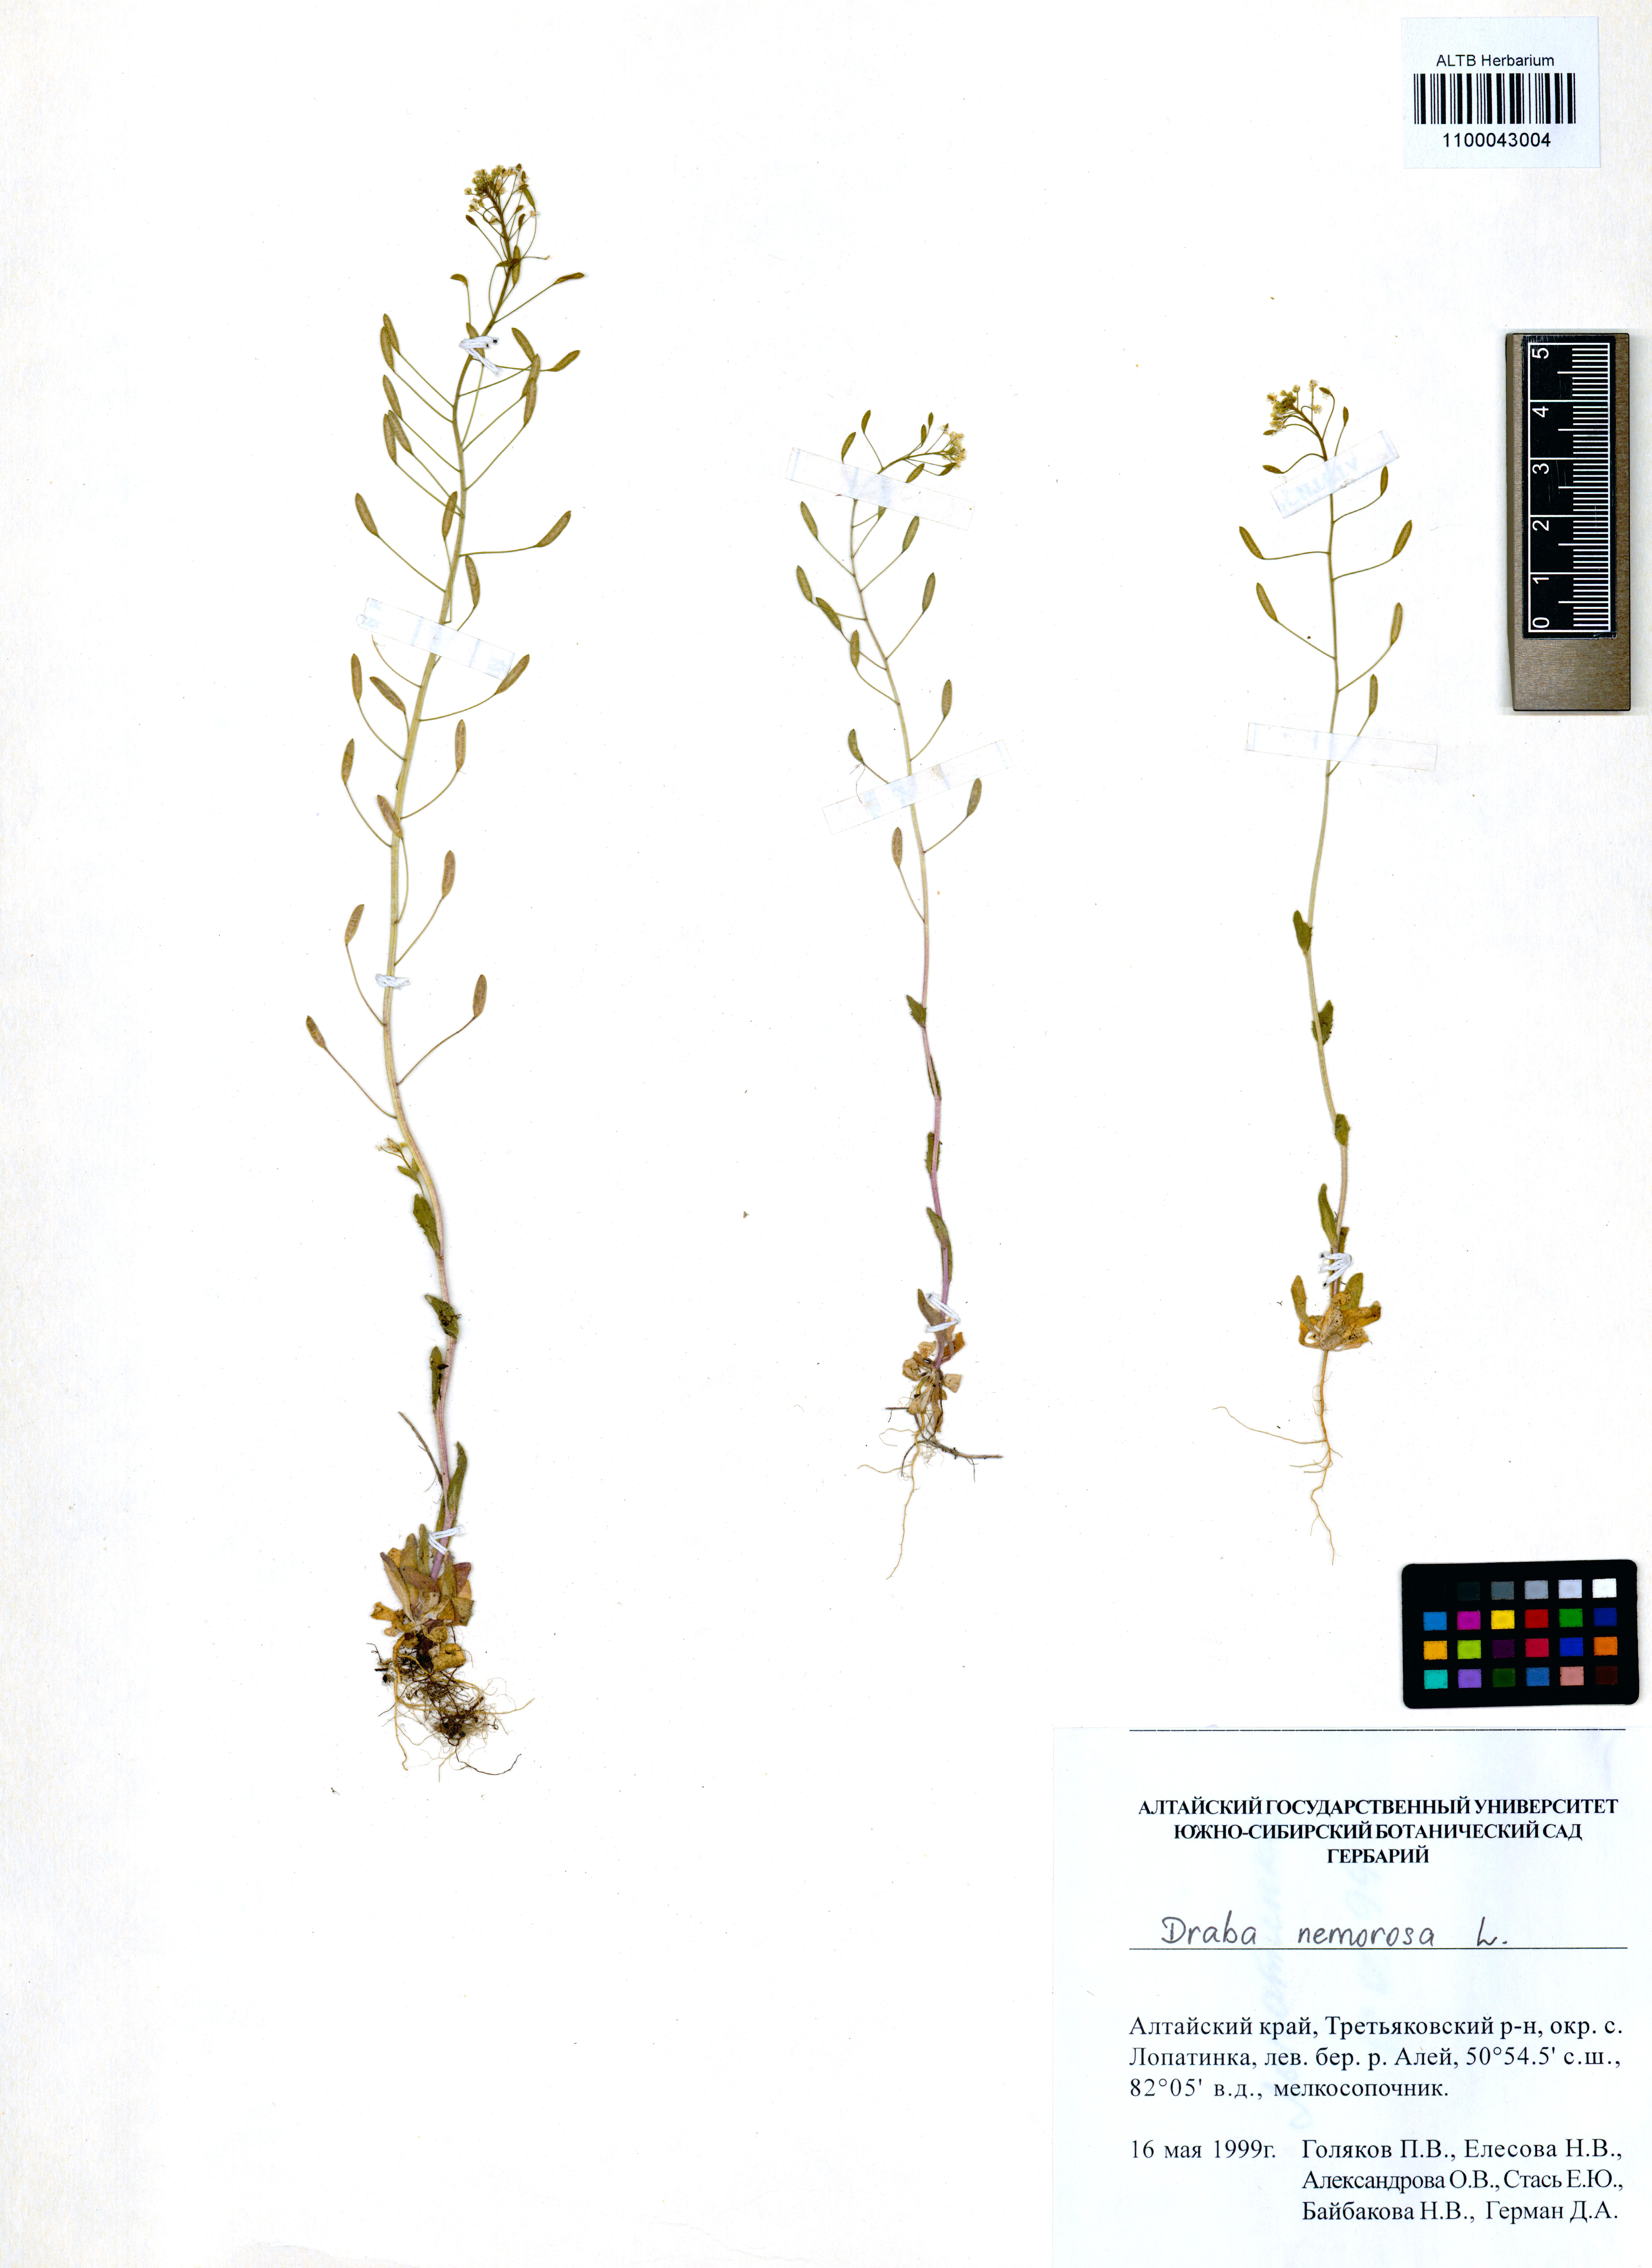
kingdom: Plantae
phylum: Tracheophyta
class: Magnoliopsida
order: Brassicales
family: Brassicaceae
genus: Draba
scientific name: Draba nemorosa
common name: Wood whitlow-grass
